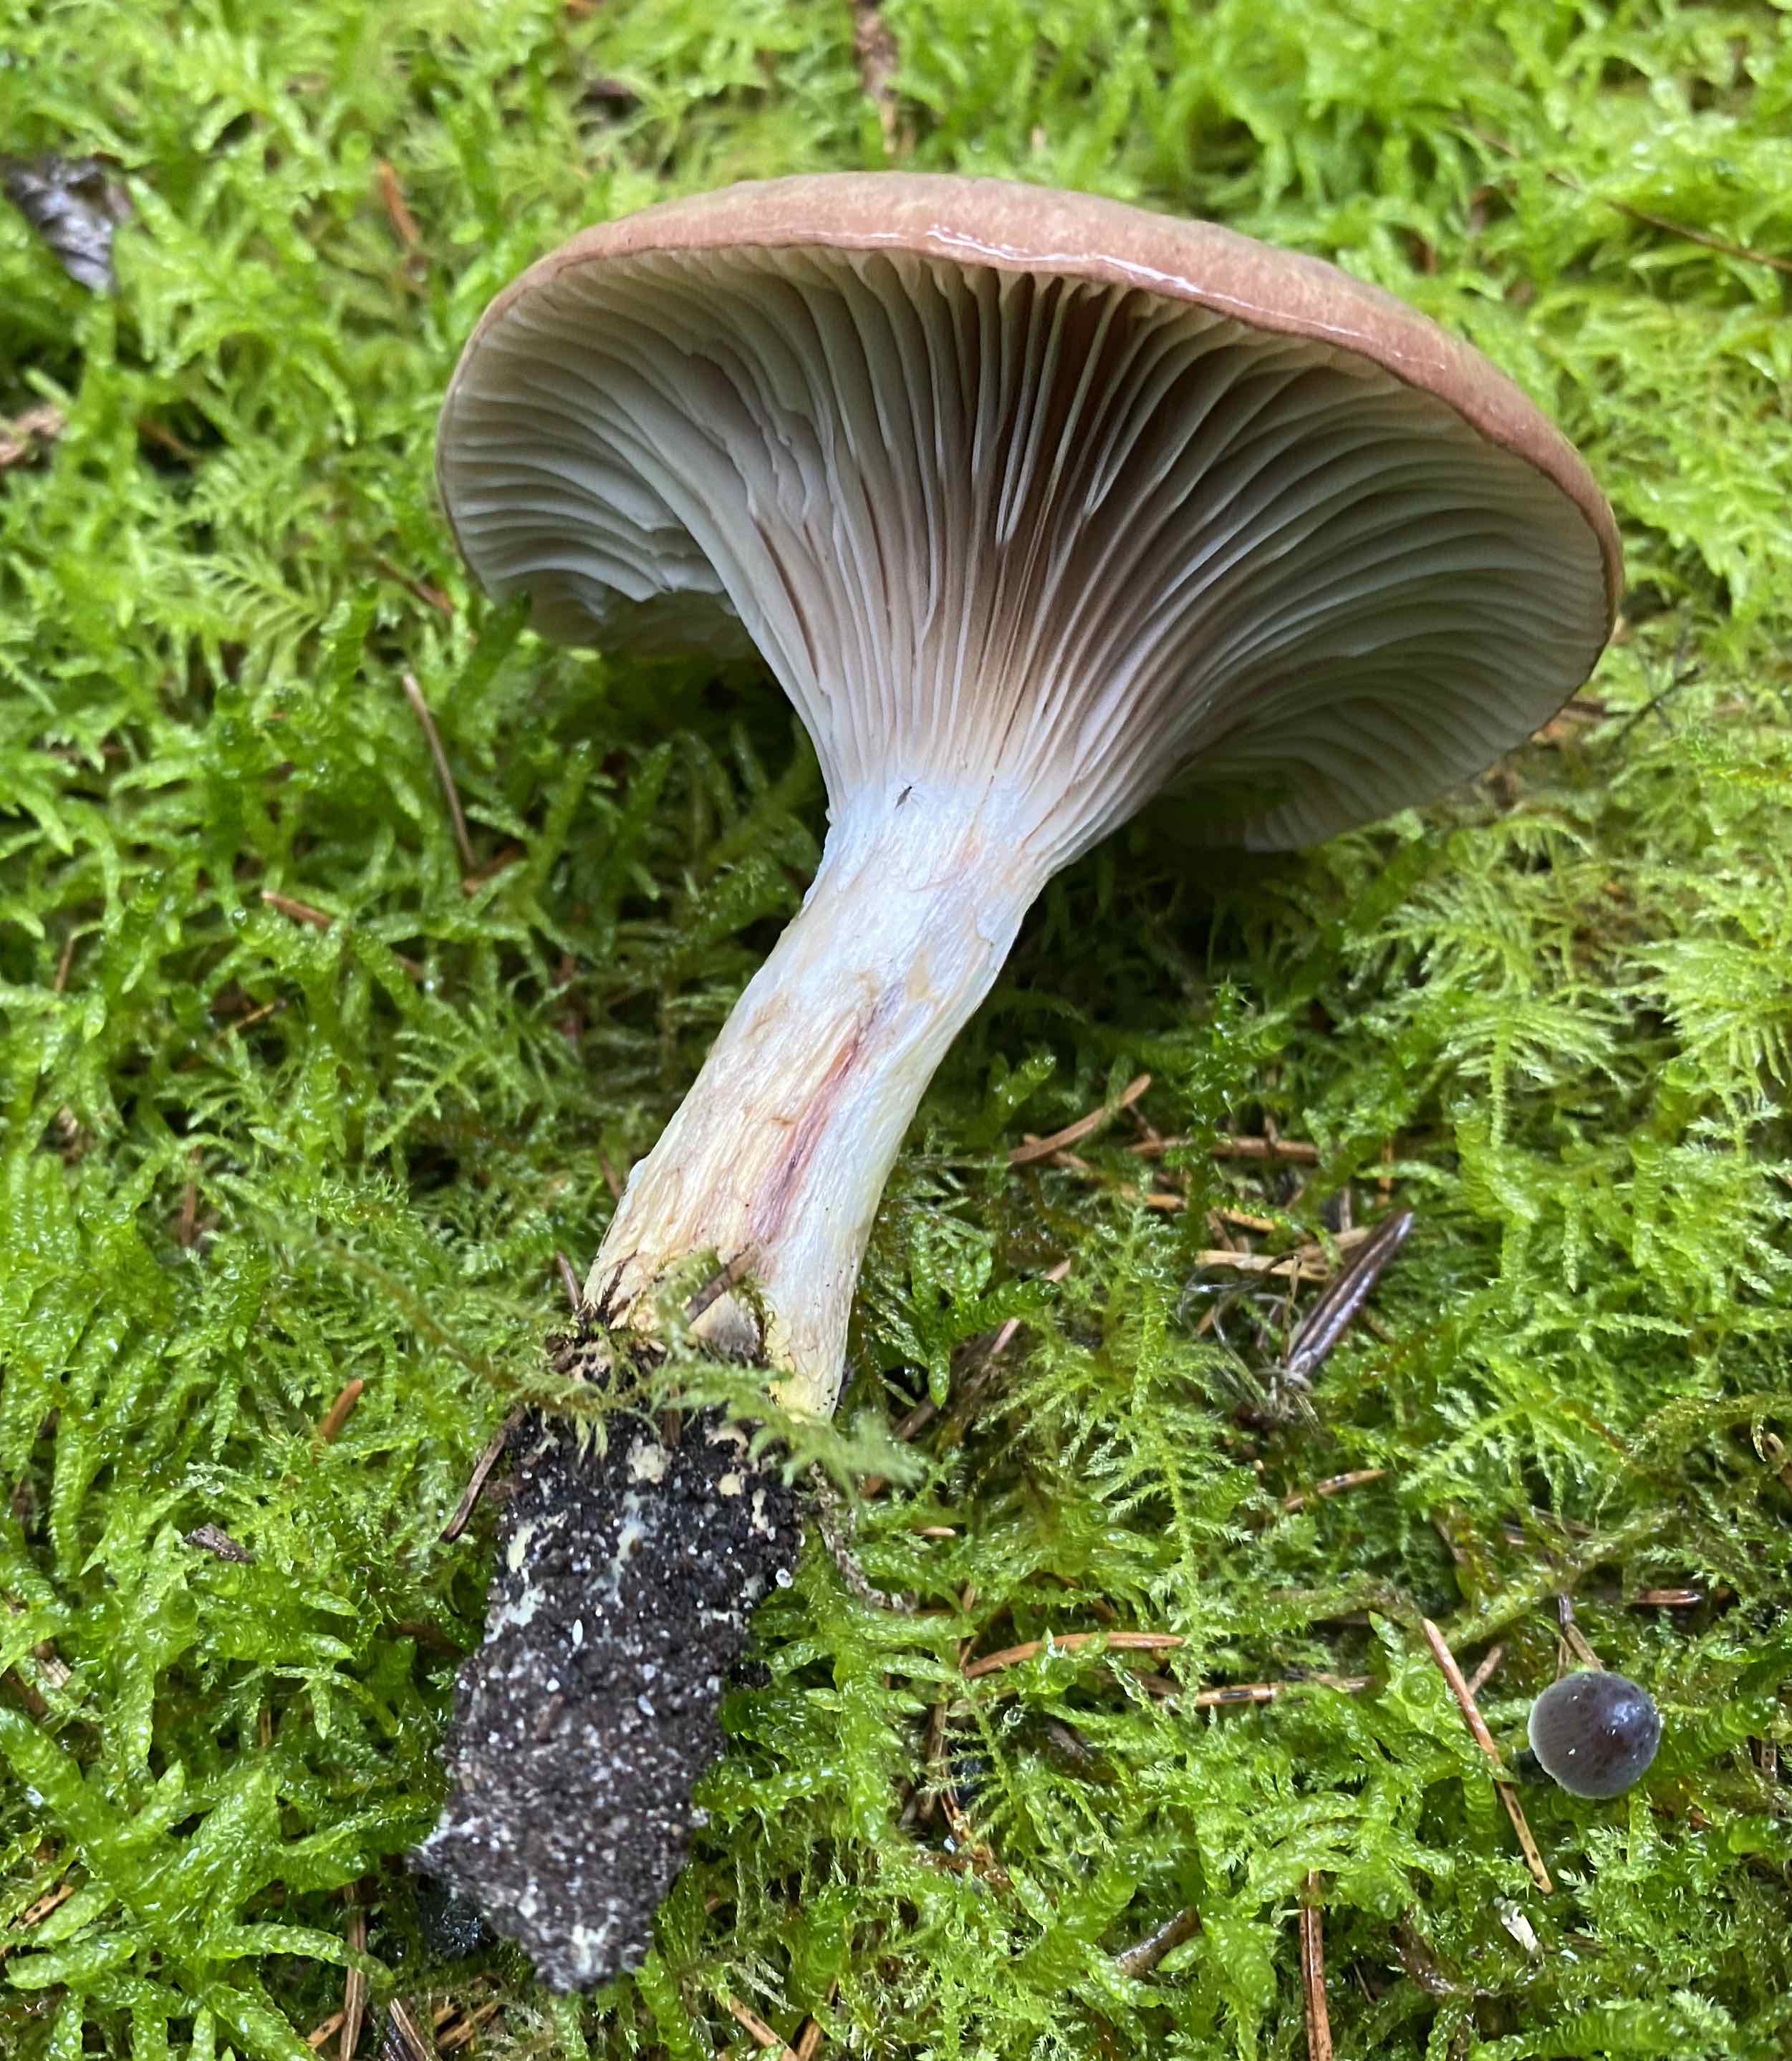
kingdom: Fungi
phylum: Basidiomycota
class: Agaricomycetes
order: Boletales
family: Gomphidiaceae
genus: Gomphidius
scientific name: Gomphidius glutinosus
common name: grå slimslør
